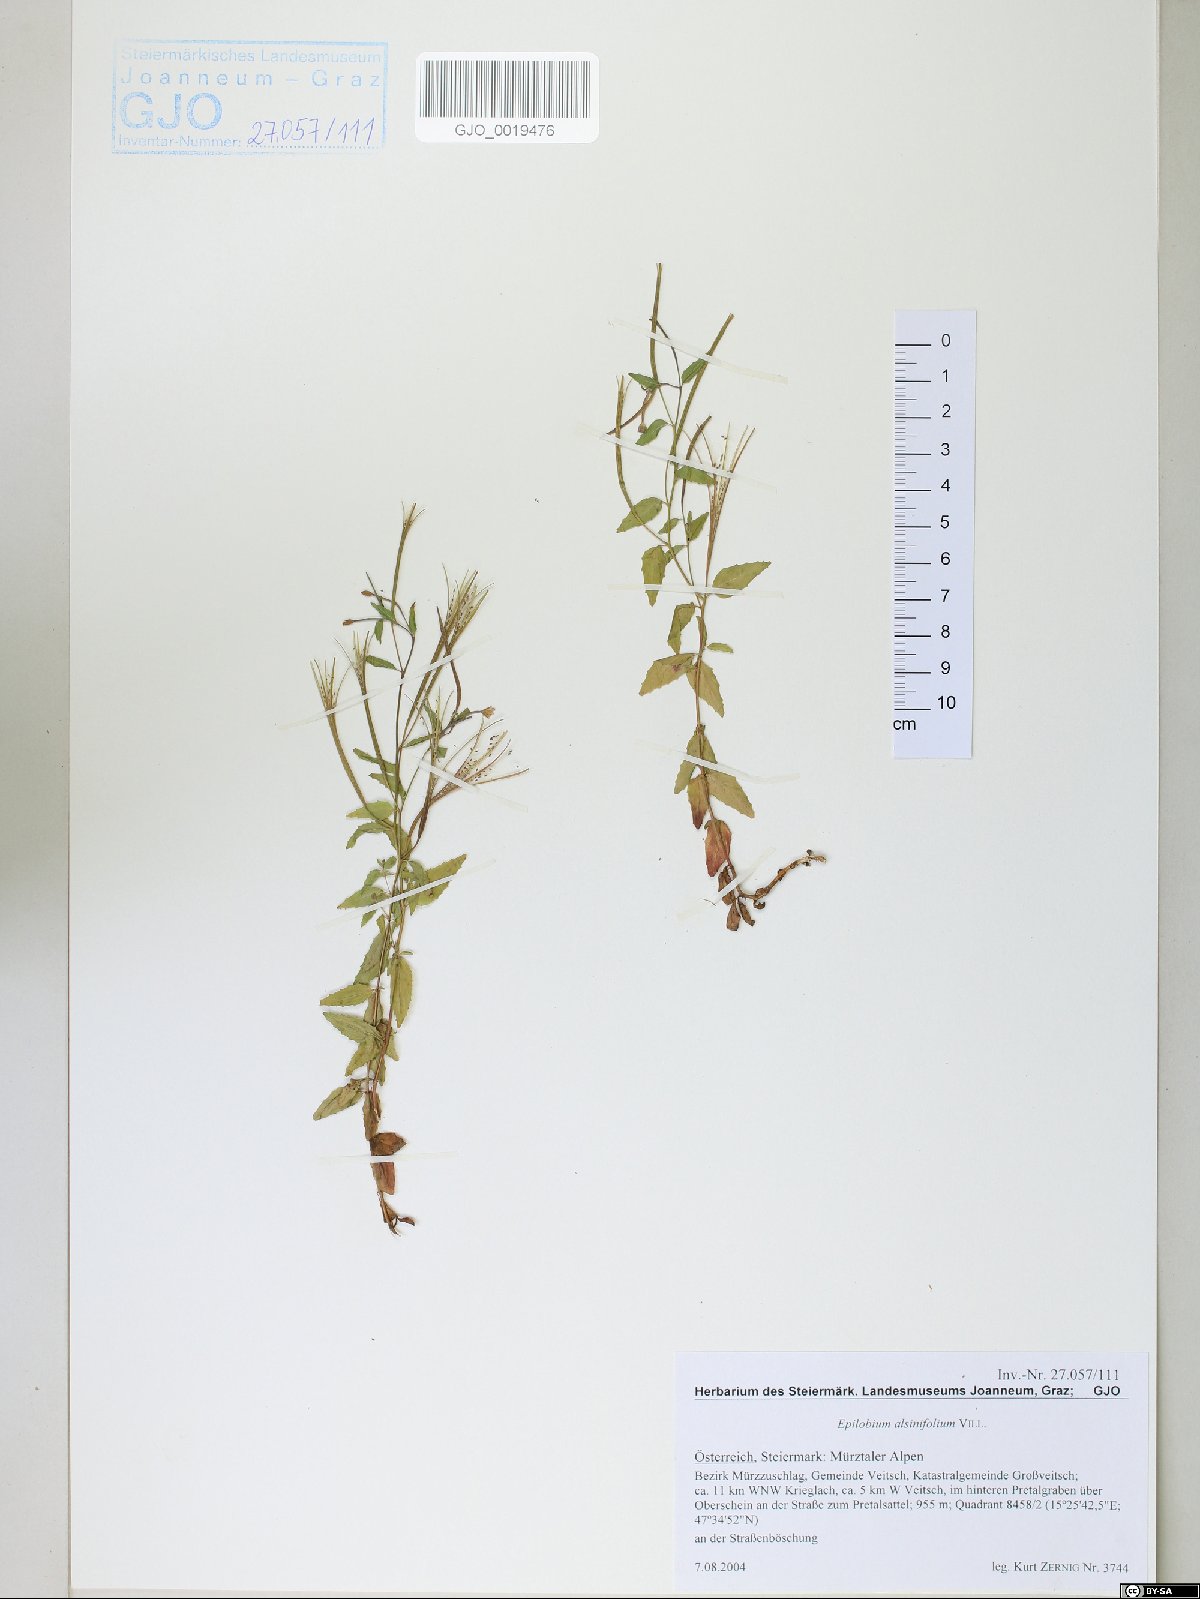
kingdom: Plantae
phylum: Tracheophyta
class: Magnoliopsida
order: Myrtales
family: Onagraceae
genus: Epilobium
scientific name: Epilobium alsinifolium
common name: Chickweed willowherb
